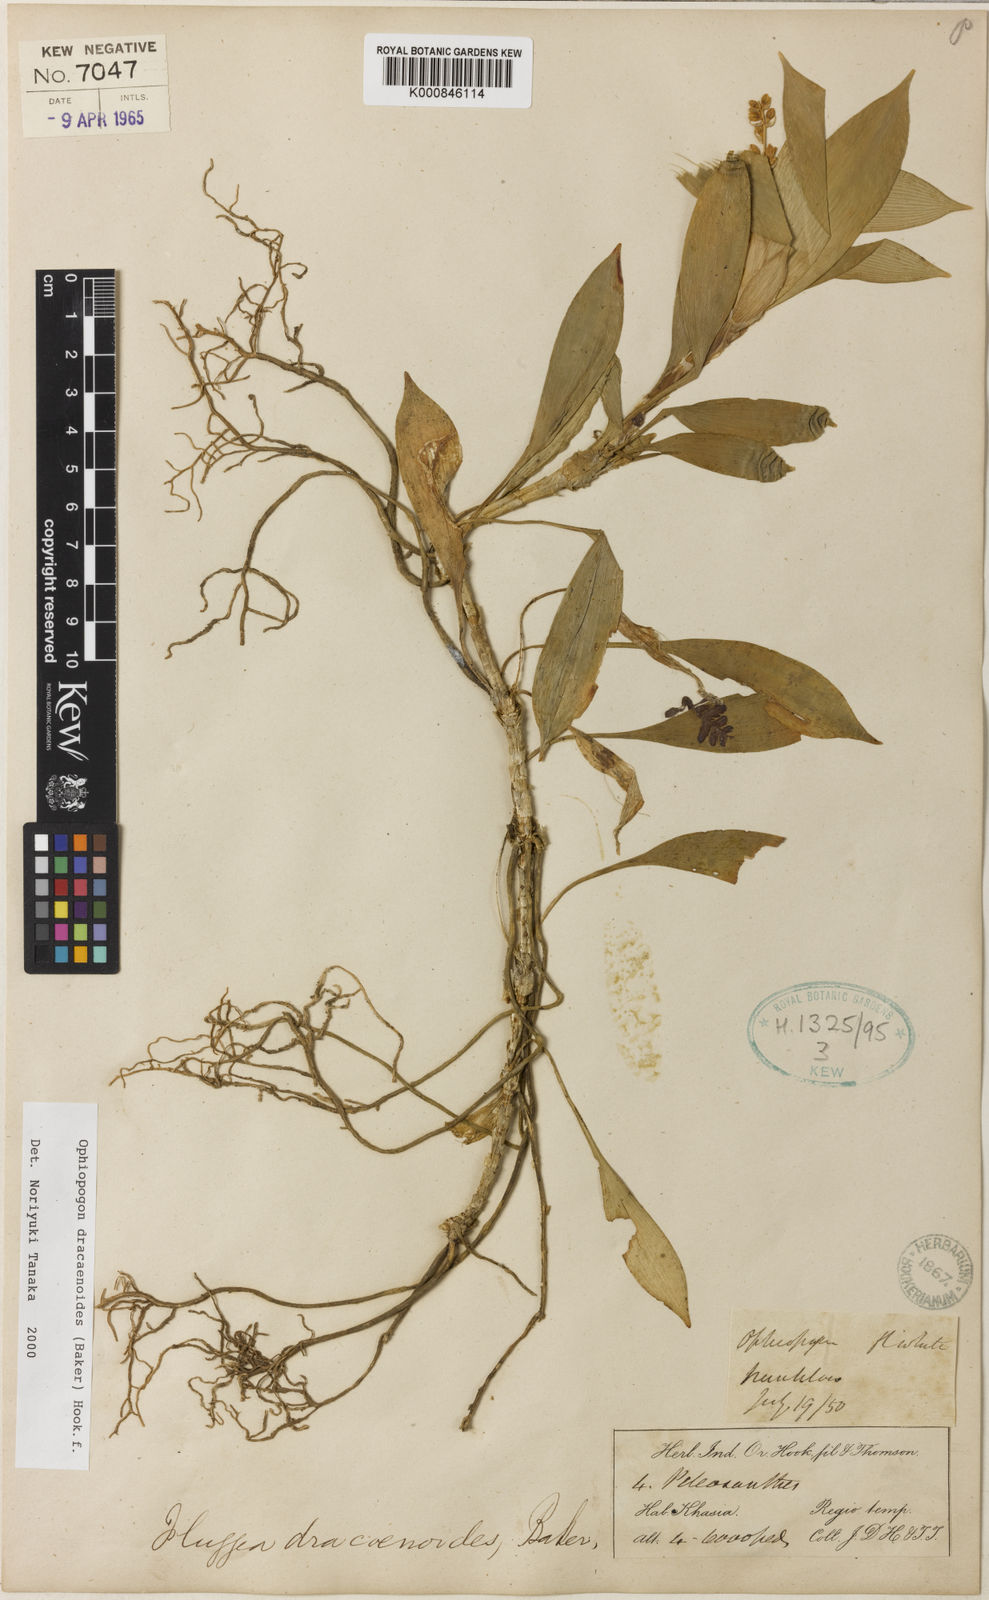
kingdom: Plantae
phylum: Tracheophyta
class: Liliopsida
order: Asparagales
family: Asparagaceae
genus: Ophiopogon
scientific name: Ophiopogon dracaenoides
